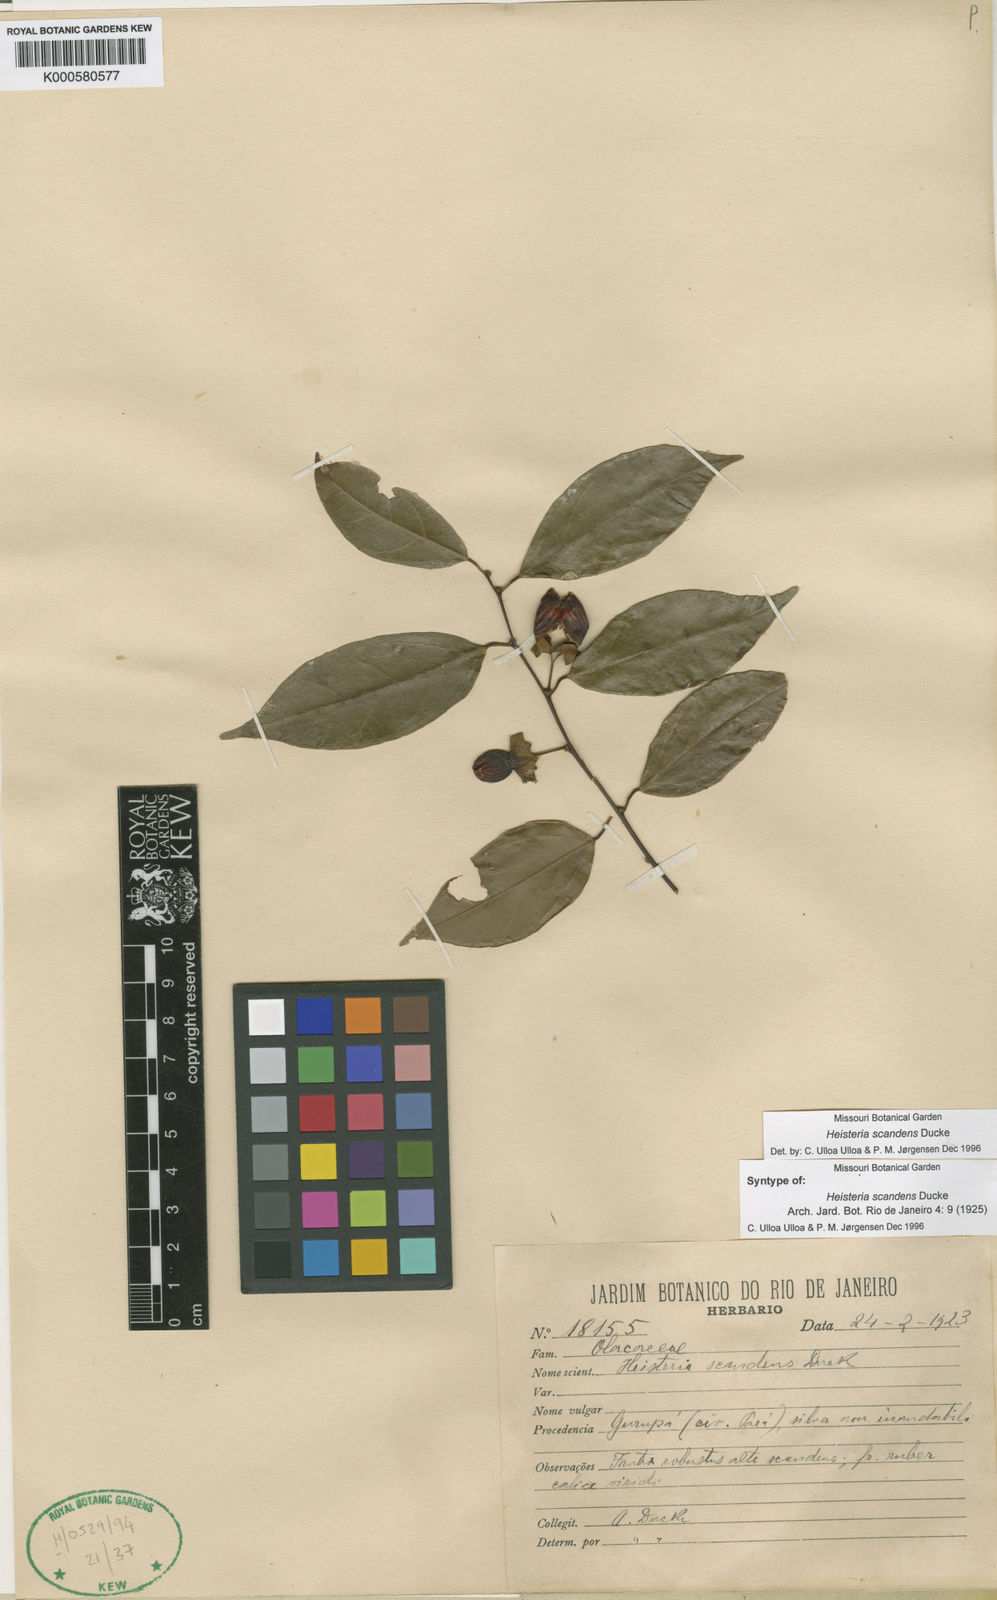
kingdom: Plantae
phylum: Tracheophyta
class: Magnoliopsida
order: Santalales
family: Erythropalaceae
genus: Heisteria
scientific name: Heisteria scandens
